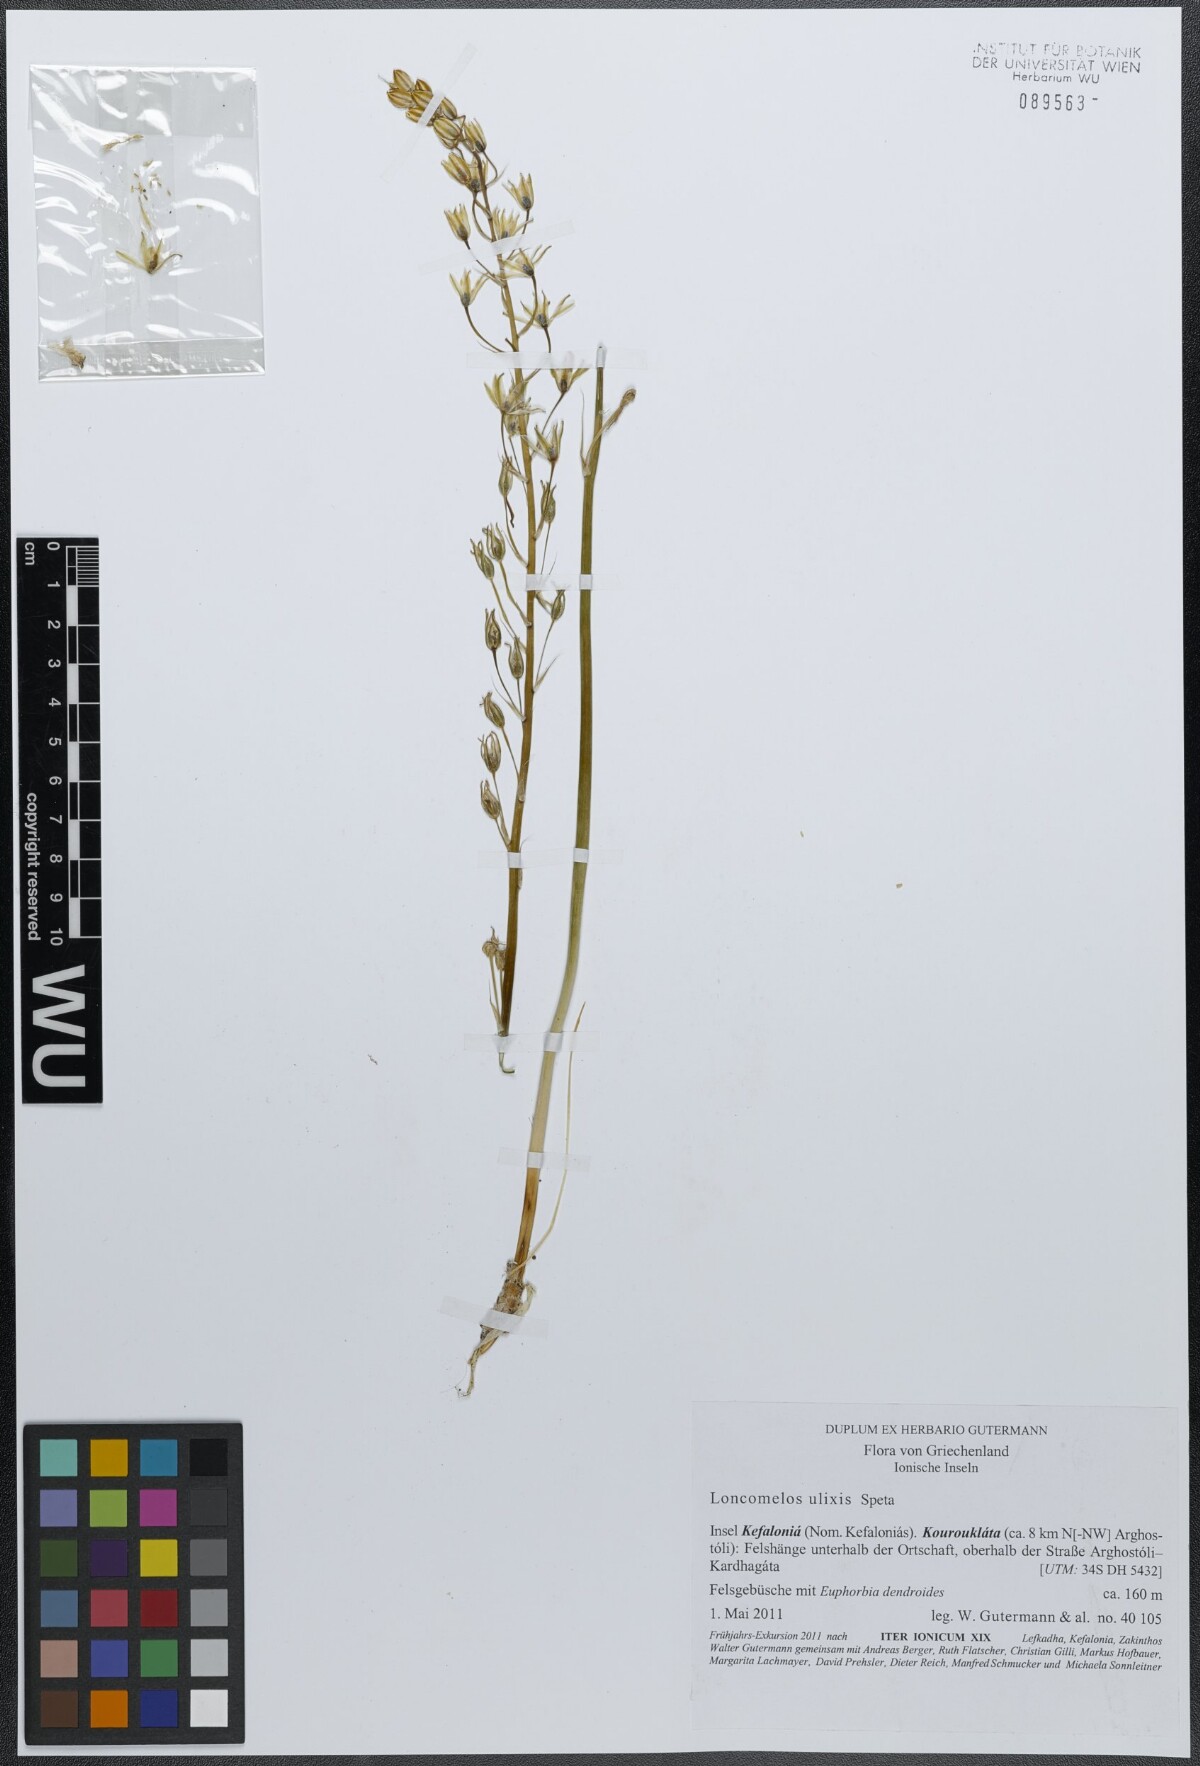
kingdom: Plantae
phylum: Tracheophyta
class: Liliopsida
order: Asparagales
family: Asparagaceae
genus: Ornithogalum
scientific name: Ornithogalum ulixis
